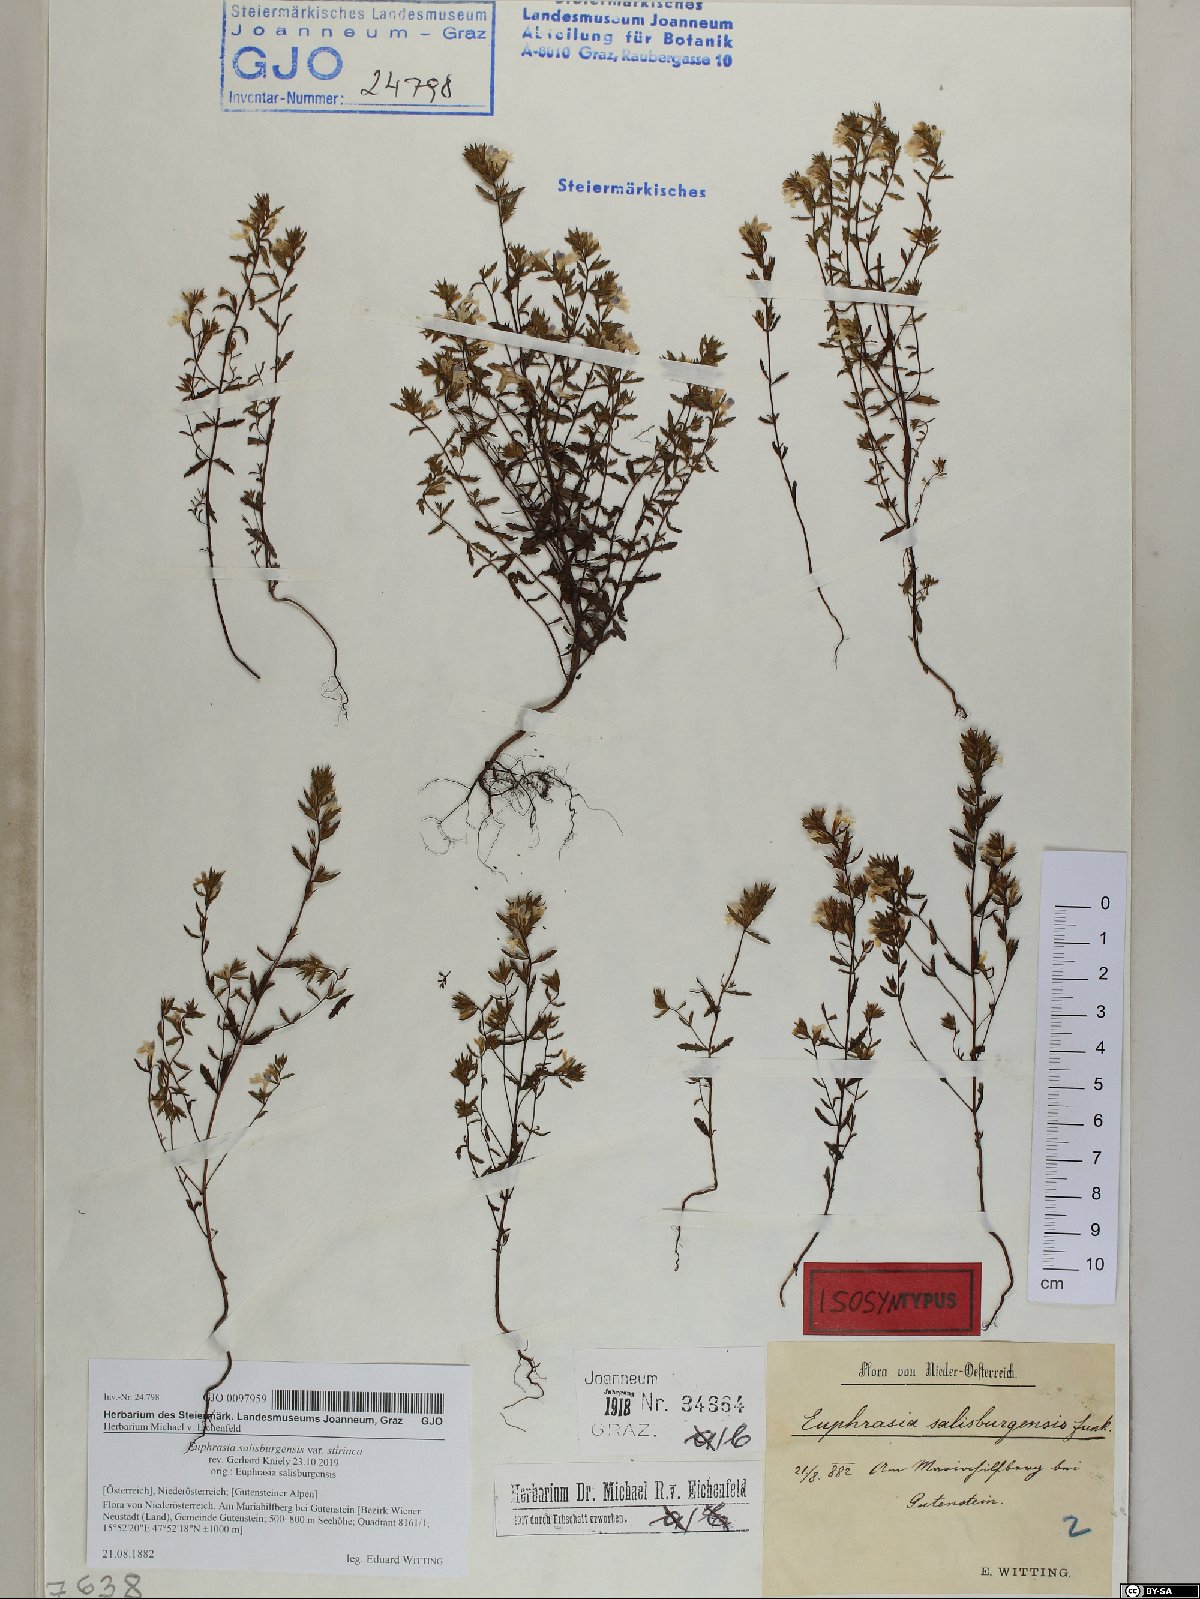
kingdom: Plantae
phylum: Tracheophyta
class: Magnoliopsida
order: Lamiales
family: Orobanchaceae
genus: Euphrasia
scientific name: Euphrasia salisburgensis
